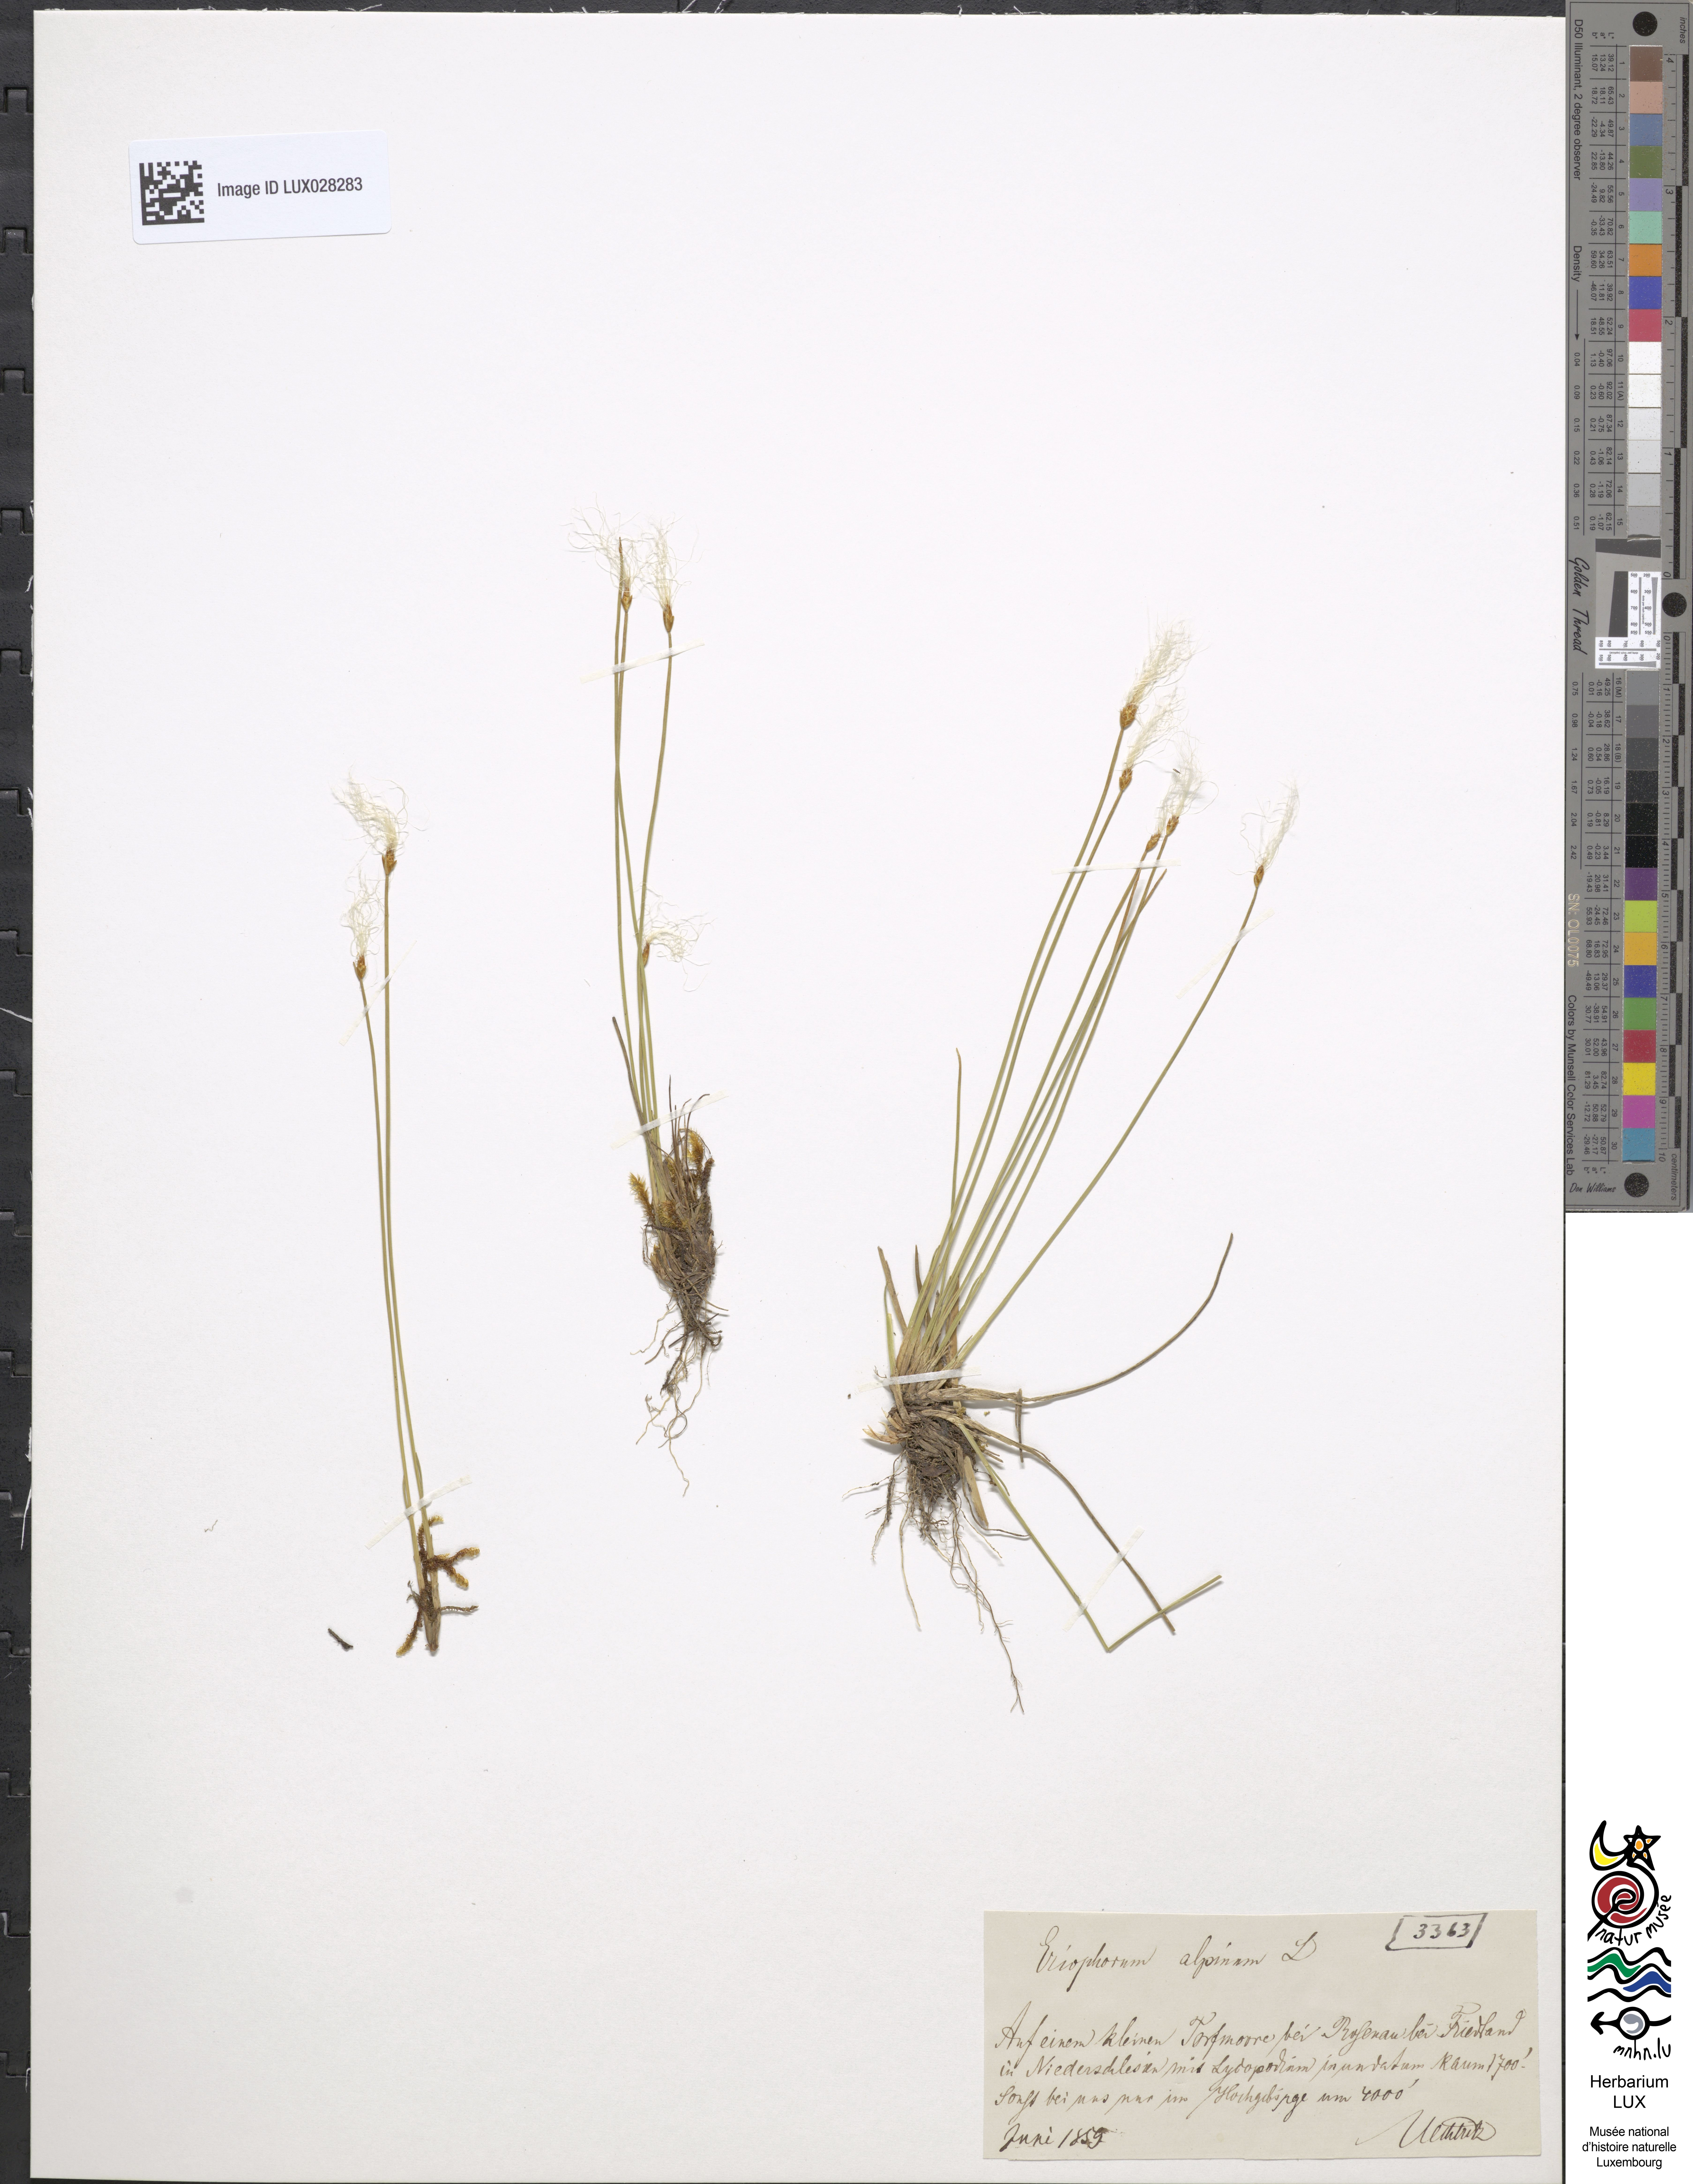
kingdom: Plantae
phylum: Tracheophyta
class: Liliopsida
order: Poales
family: Cyperaceae
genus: Trichophorum
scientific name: Trichophorum alpinum
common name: Alpine bulrush
